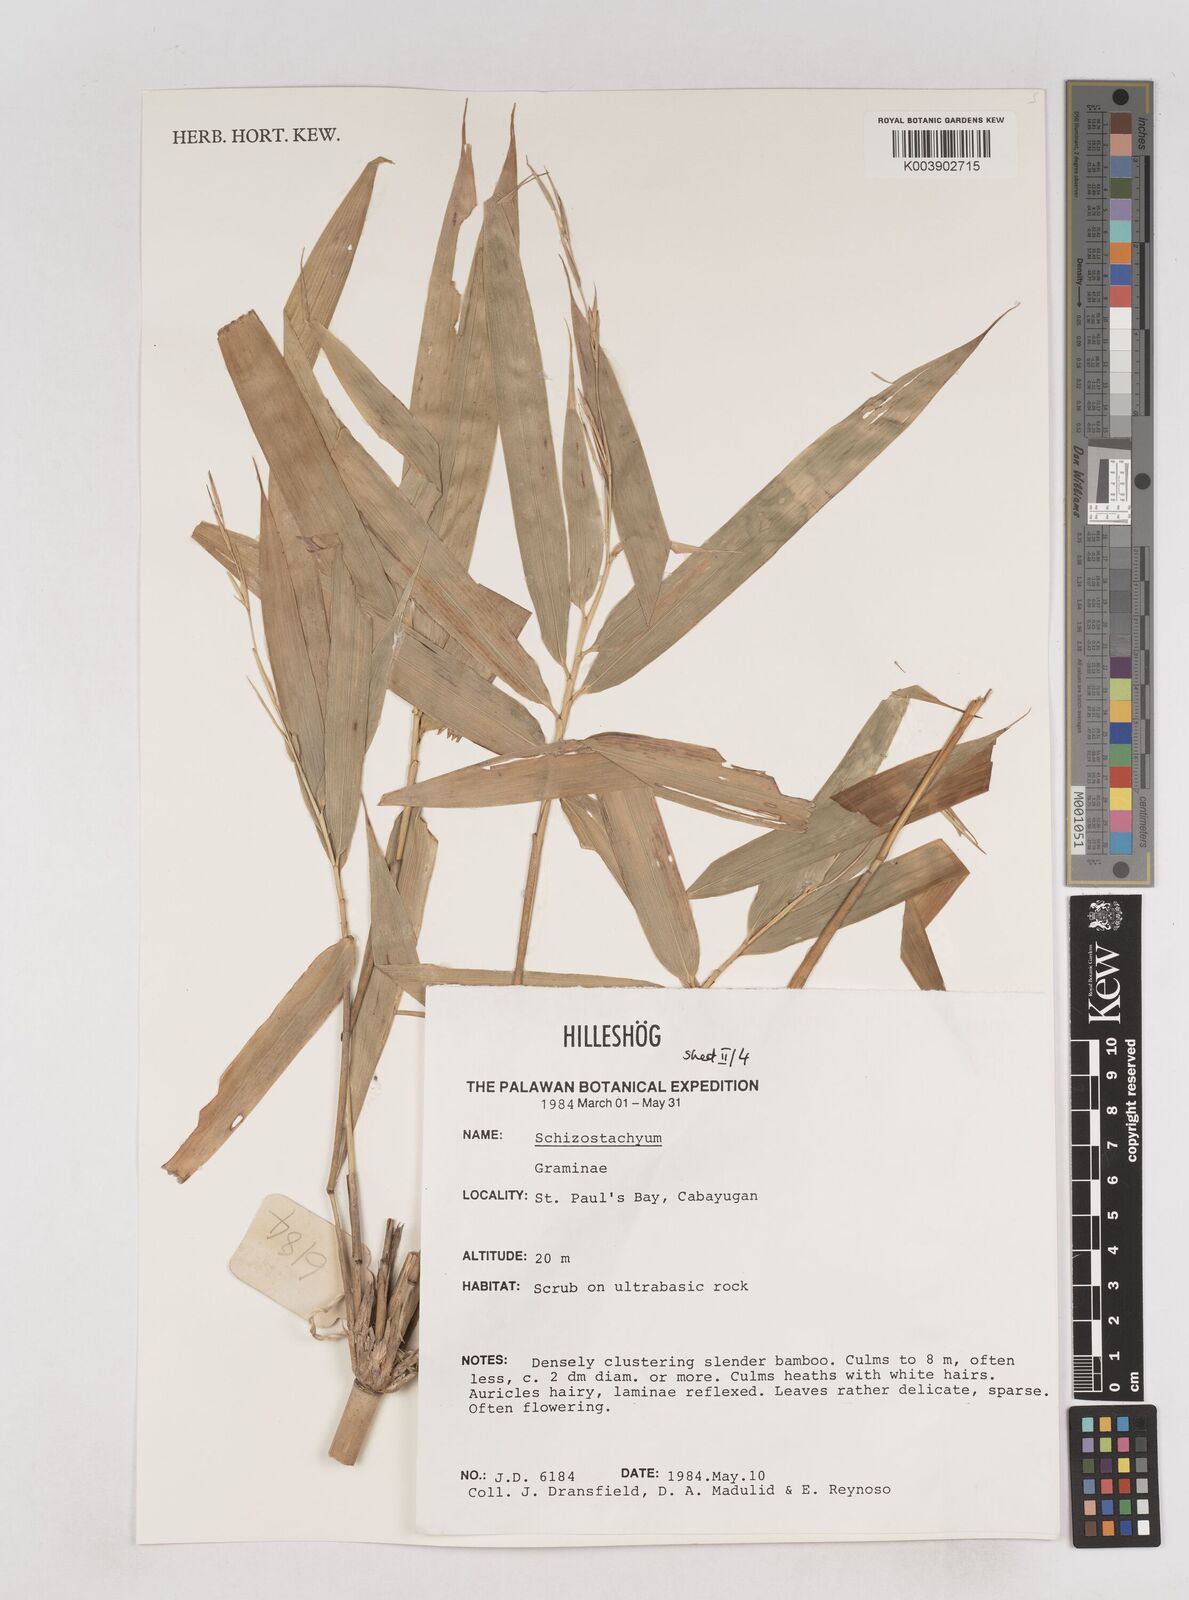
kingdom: Plantae
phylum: Tracheophyta
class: Liliopsida
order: Poales
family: Poaceae
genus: Schizostachyum
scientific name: Schizostachyum
